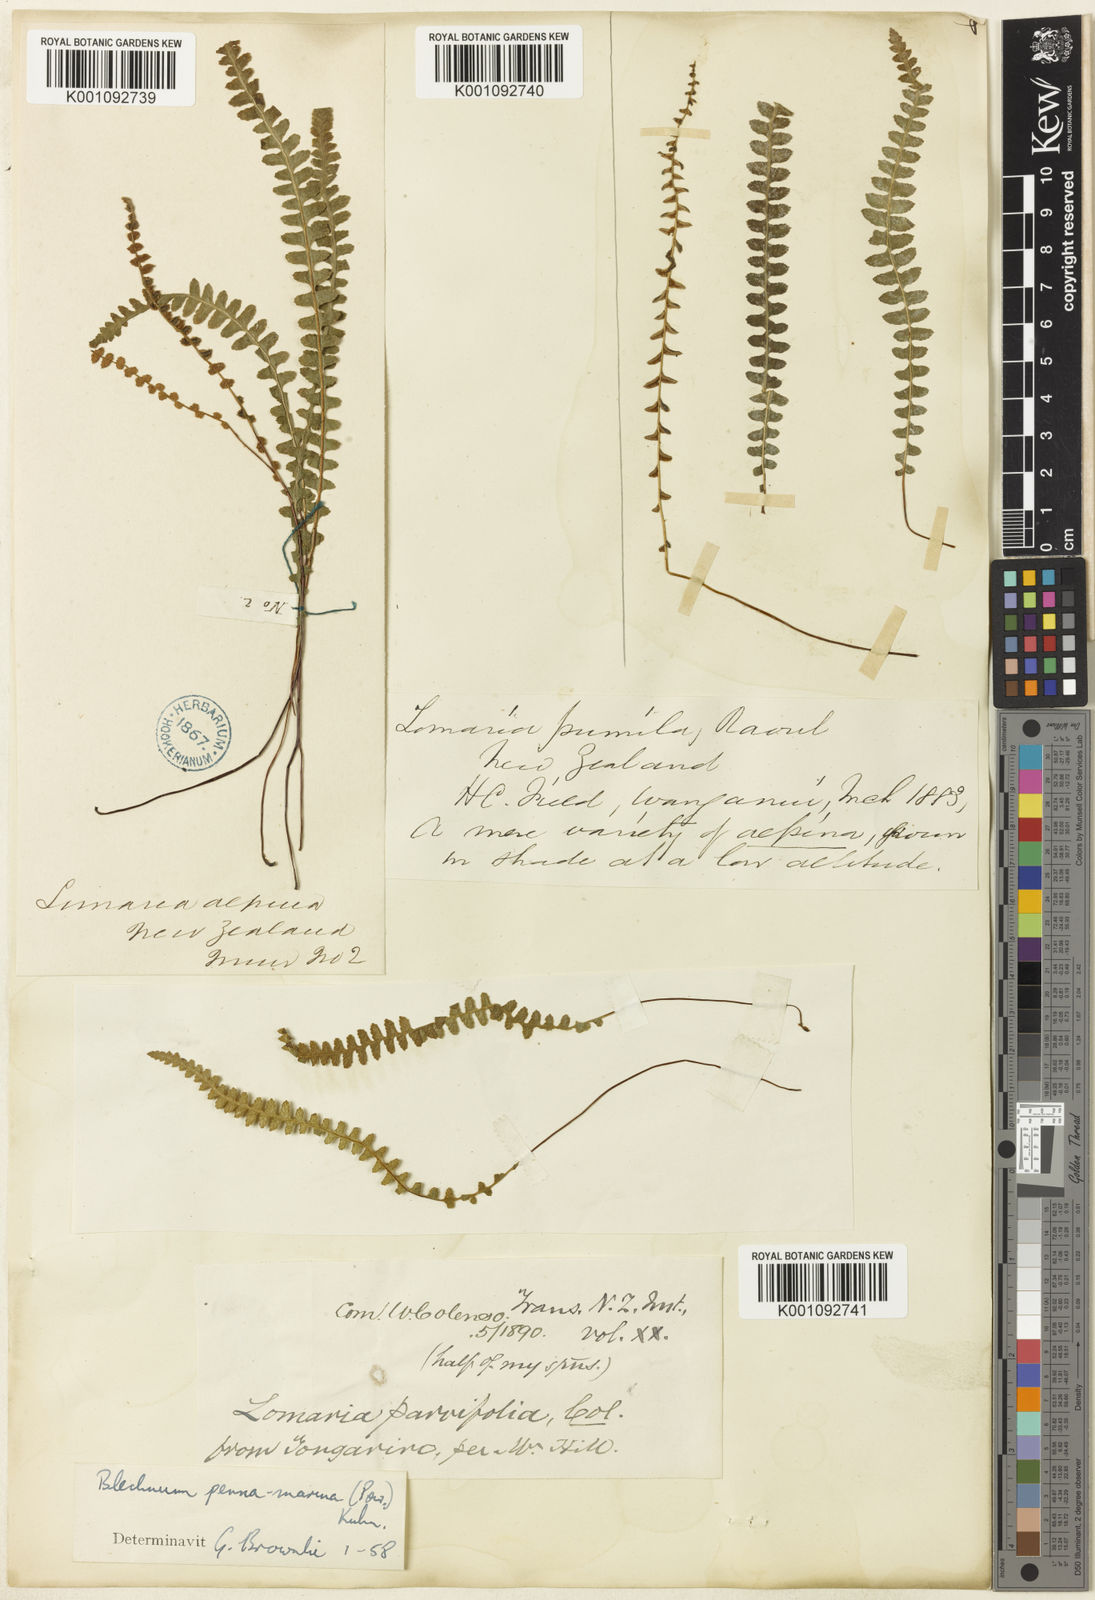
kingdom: Plantae
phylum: Tracheophyta
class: Polypodiopsida
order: Polypodiales
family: Blechnaceae
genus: Austroblechnum
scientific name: Austroblechnum leyboldtianum
